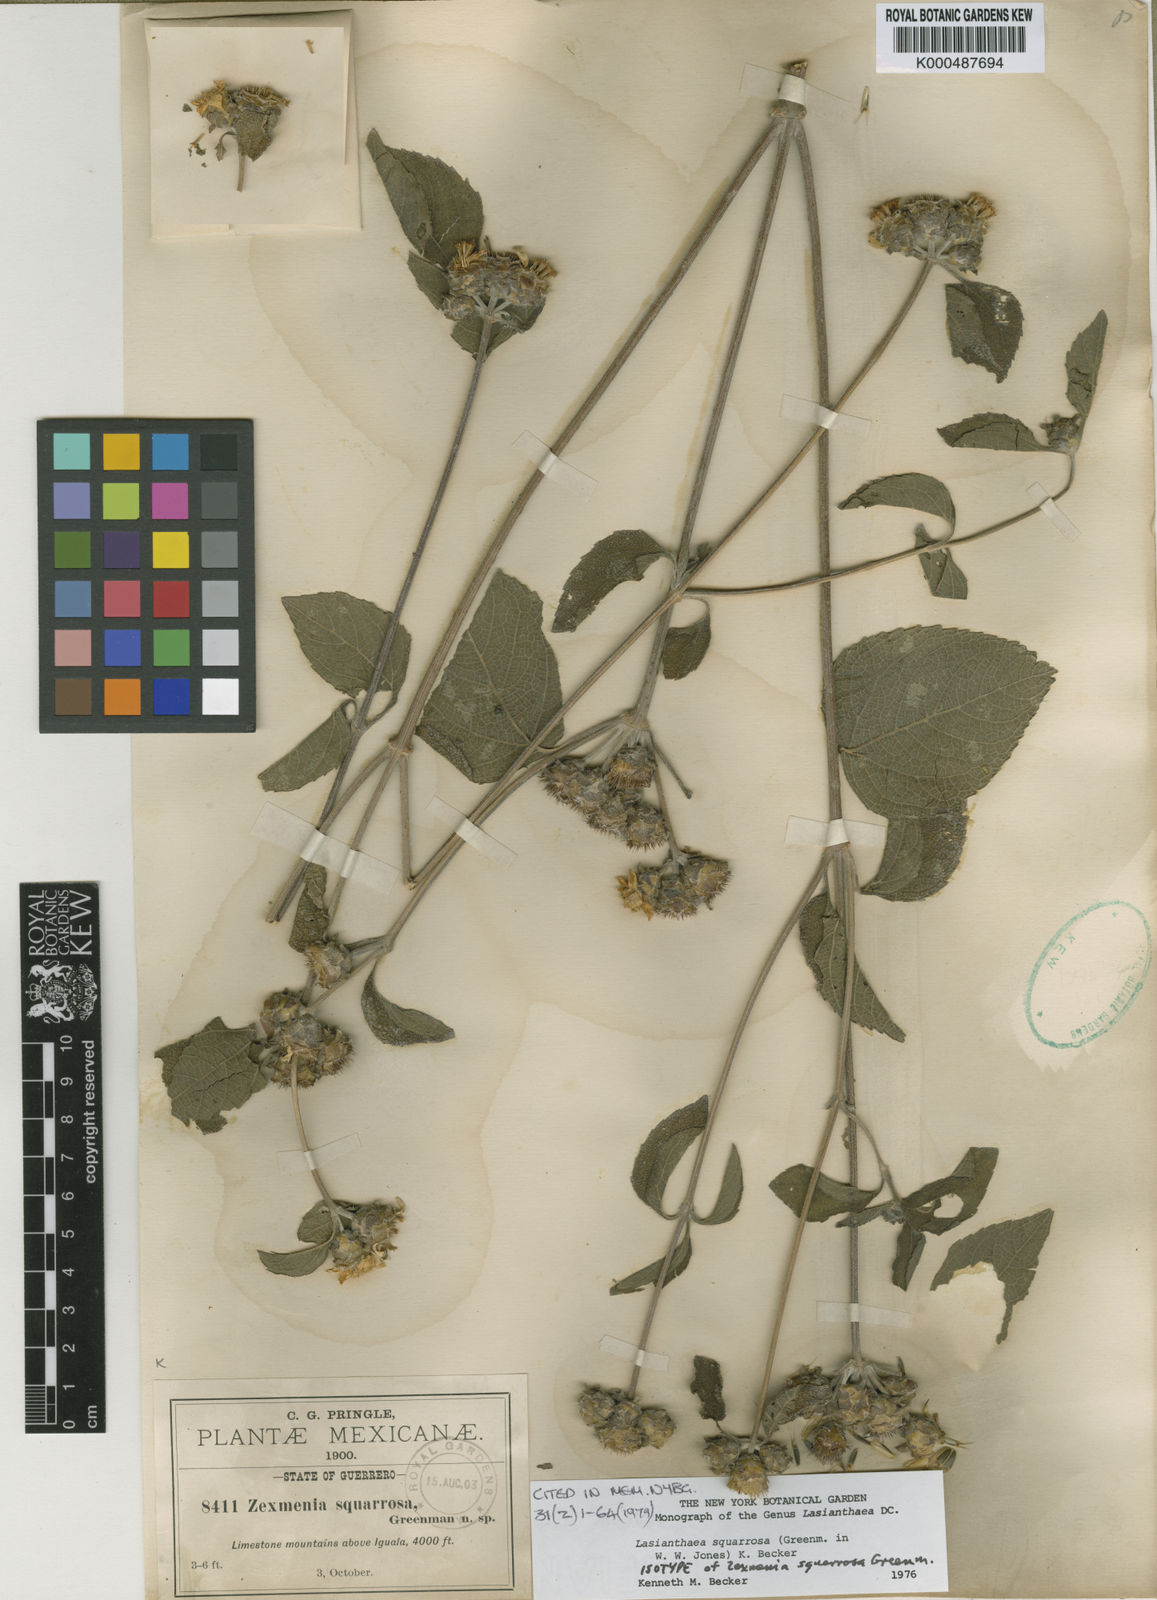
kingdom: Plantae
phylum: Tracheophyta
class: Magnoliopsida
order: Asterales
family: Asteraceae
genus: Lasianthaea
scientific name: Lasianthaea squarrosa
